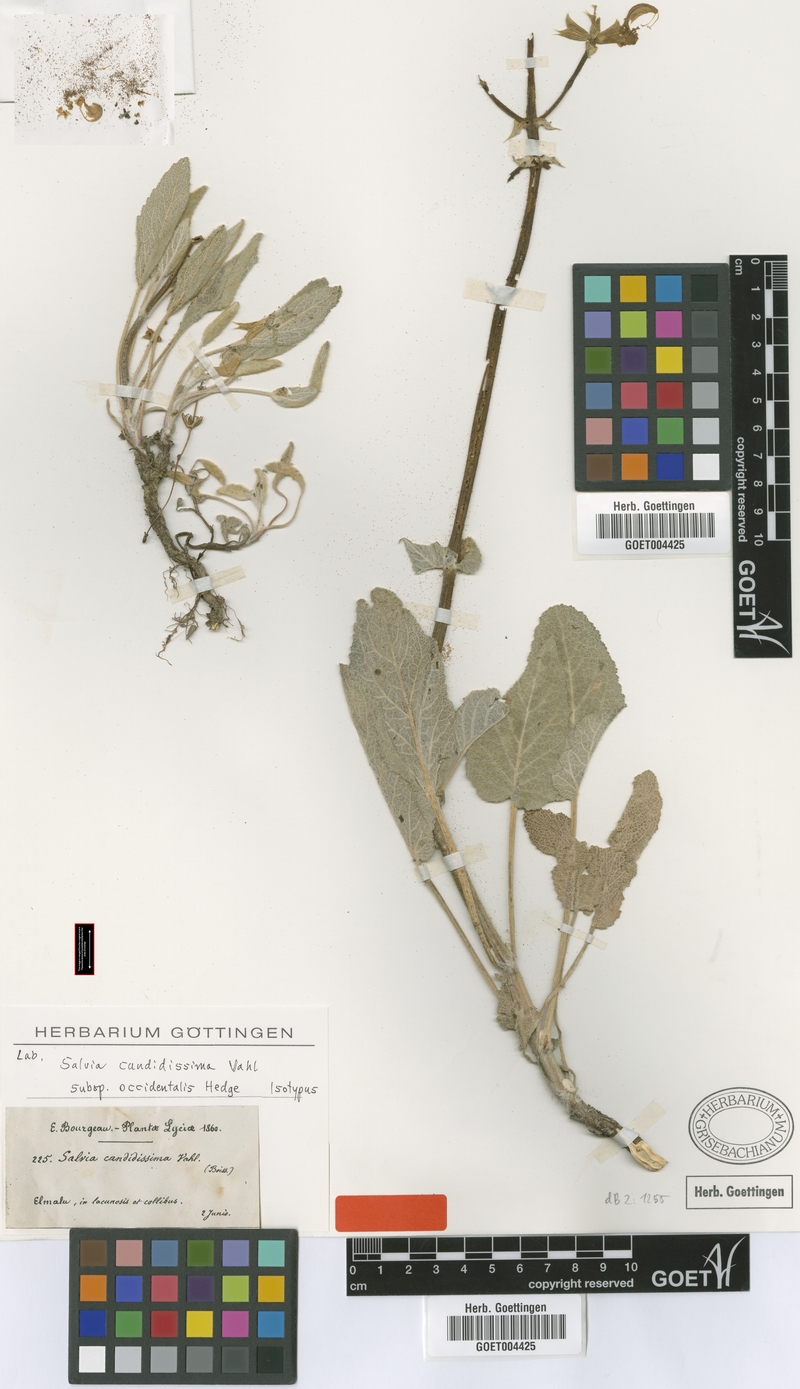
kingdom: Plantae
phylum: Tracheophyta
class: Magnoliopsida
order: Lamiales
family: Lamiaceae
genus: Salvia
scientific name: Salvia candidissima
